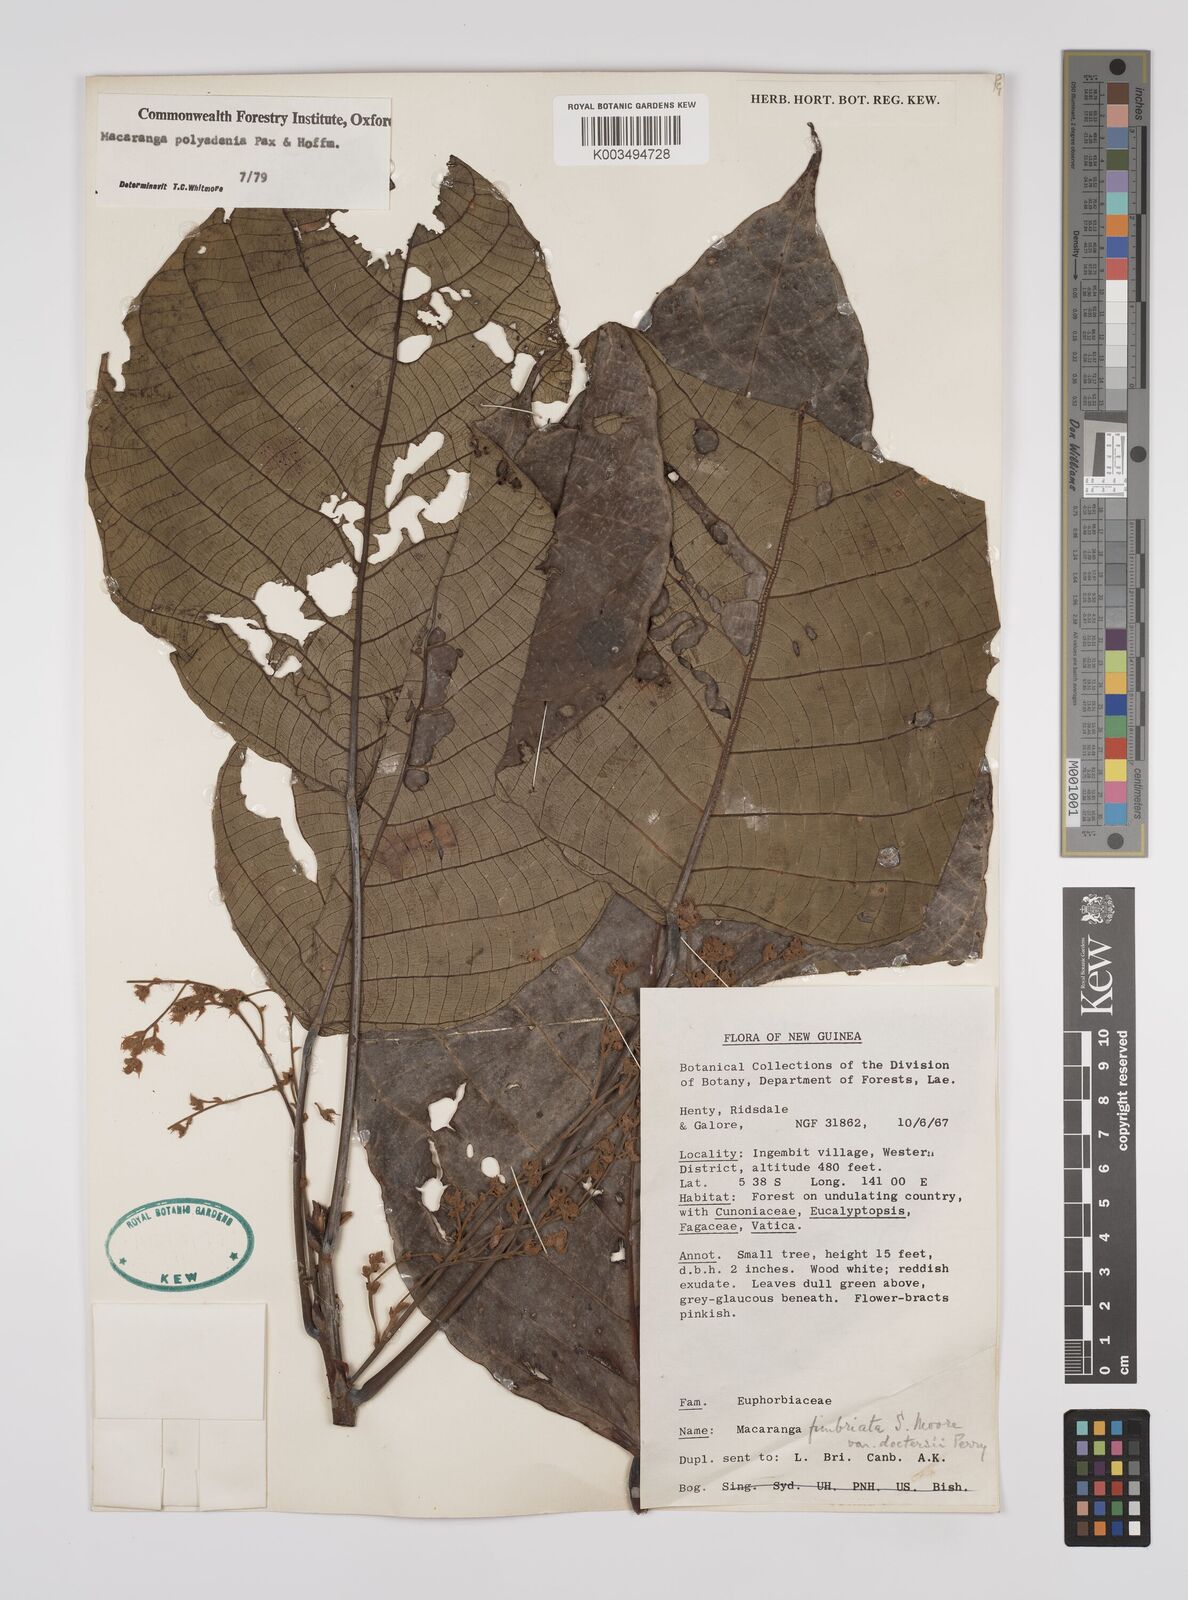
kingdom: Plantae
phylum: Tracheophyta
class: Magnoliopsida
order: Malpighiales
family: Euphorbiaceae
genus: Macaranga
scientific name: Macaranga polyadenia
